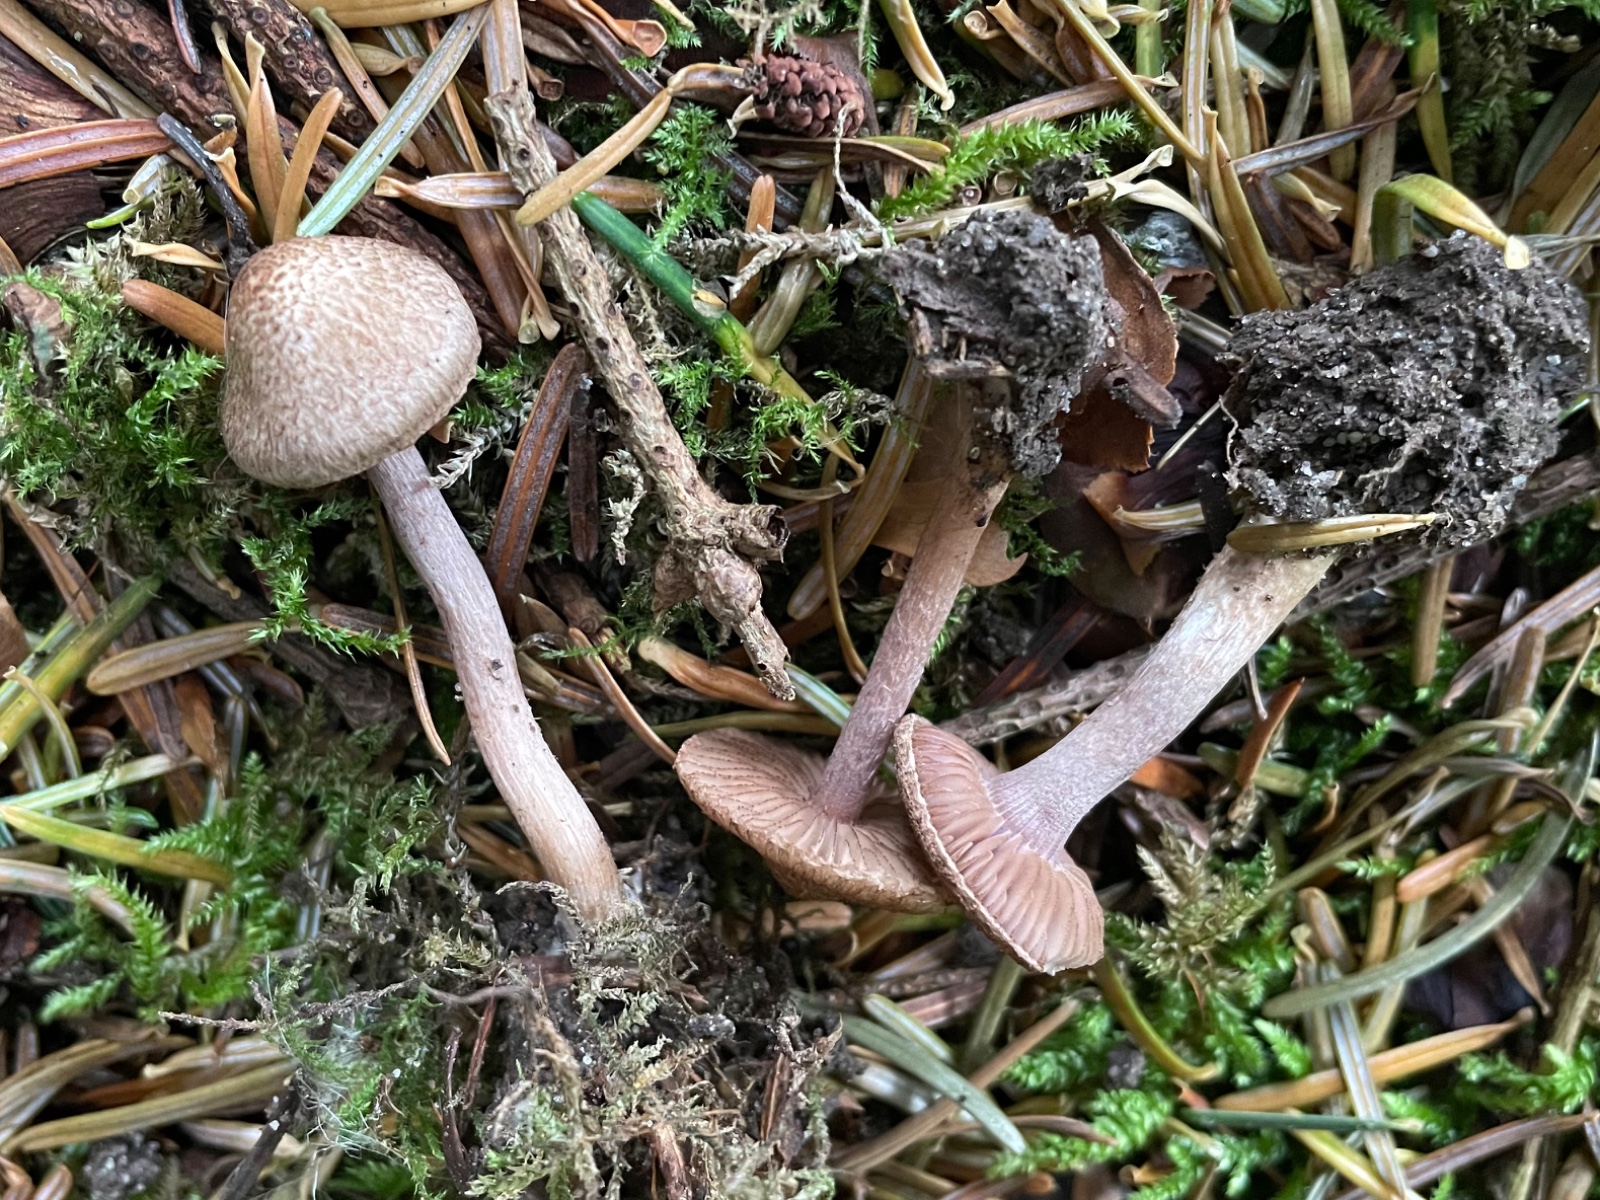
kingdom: Fungi
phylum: Basidiomycota
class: Agaricomycetes
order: Agaricales
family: Inocybaceae
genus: Inocybe
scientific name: Inocybe cincinnata
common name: lillabladet trævlhat
